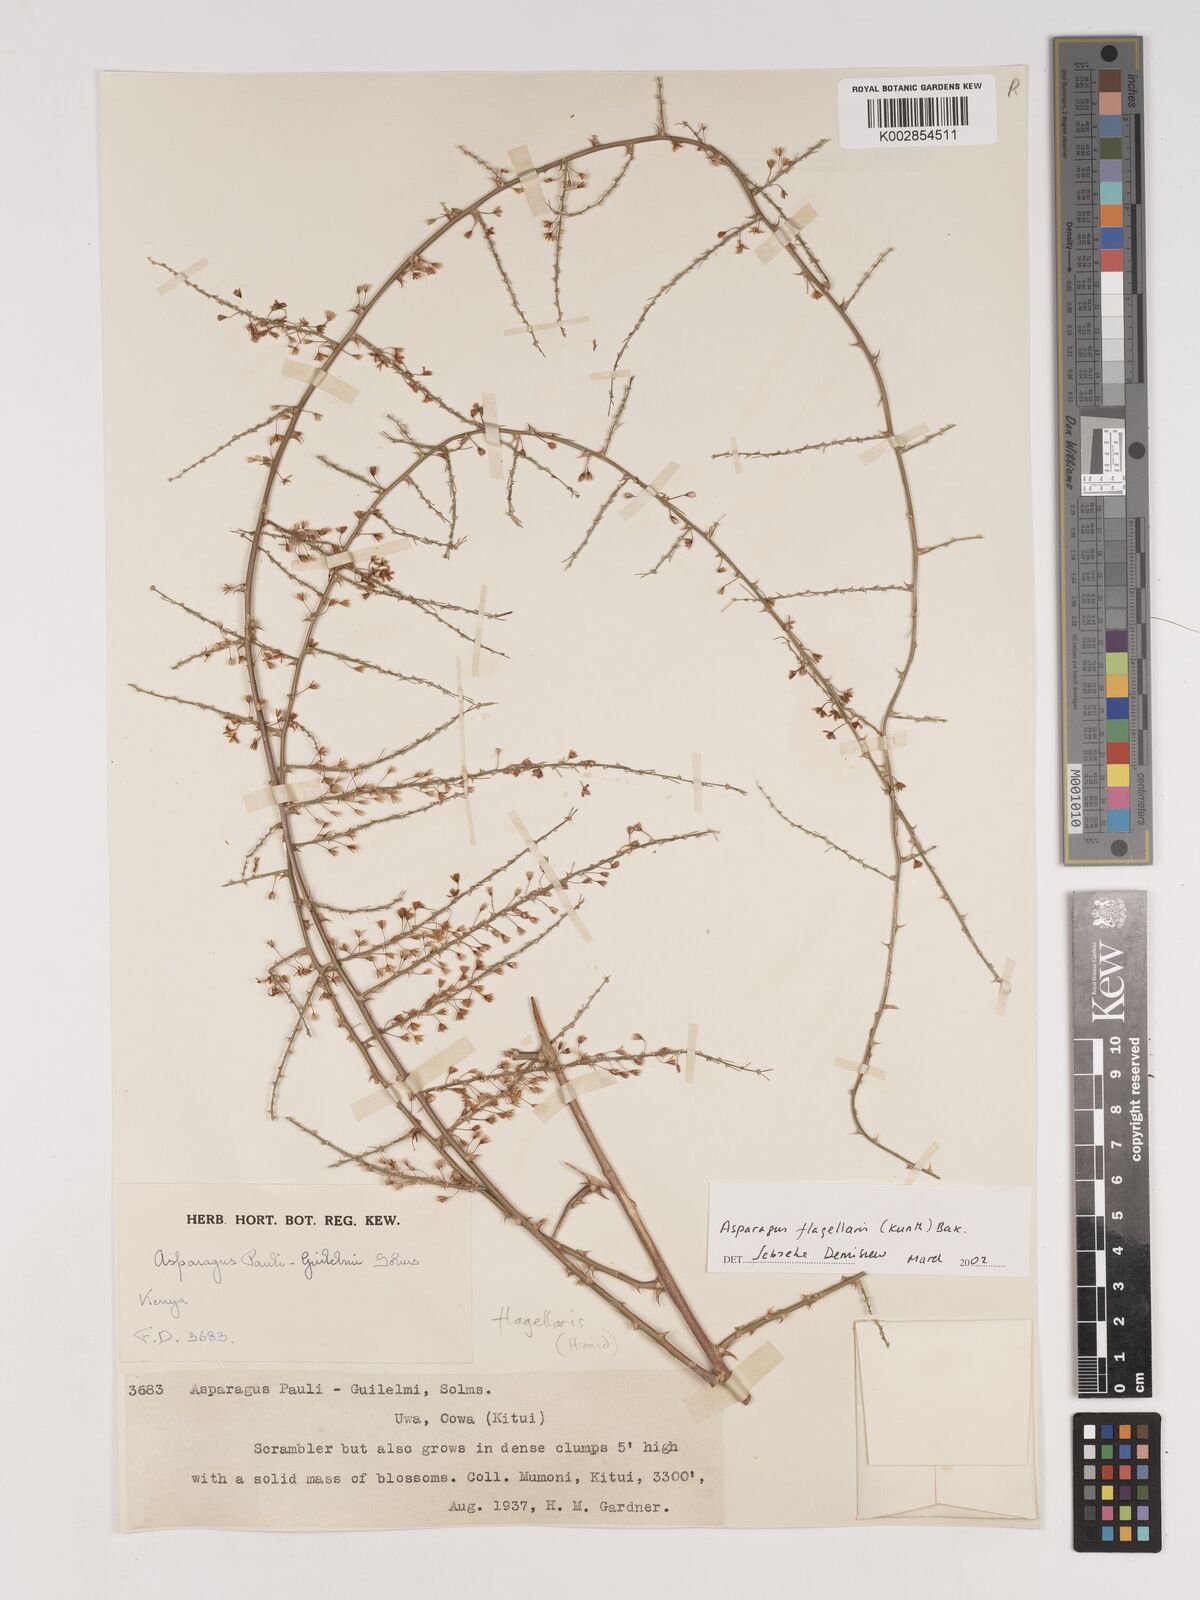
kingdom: Plantae
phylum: Tracheophyta
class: Liliopsida
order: Asparagales
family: Asparagaceae
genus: Asparagus
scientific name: Asparagus flagellaris
